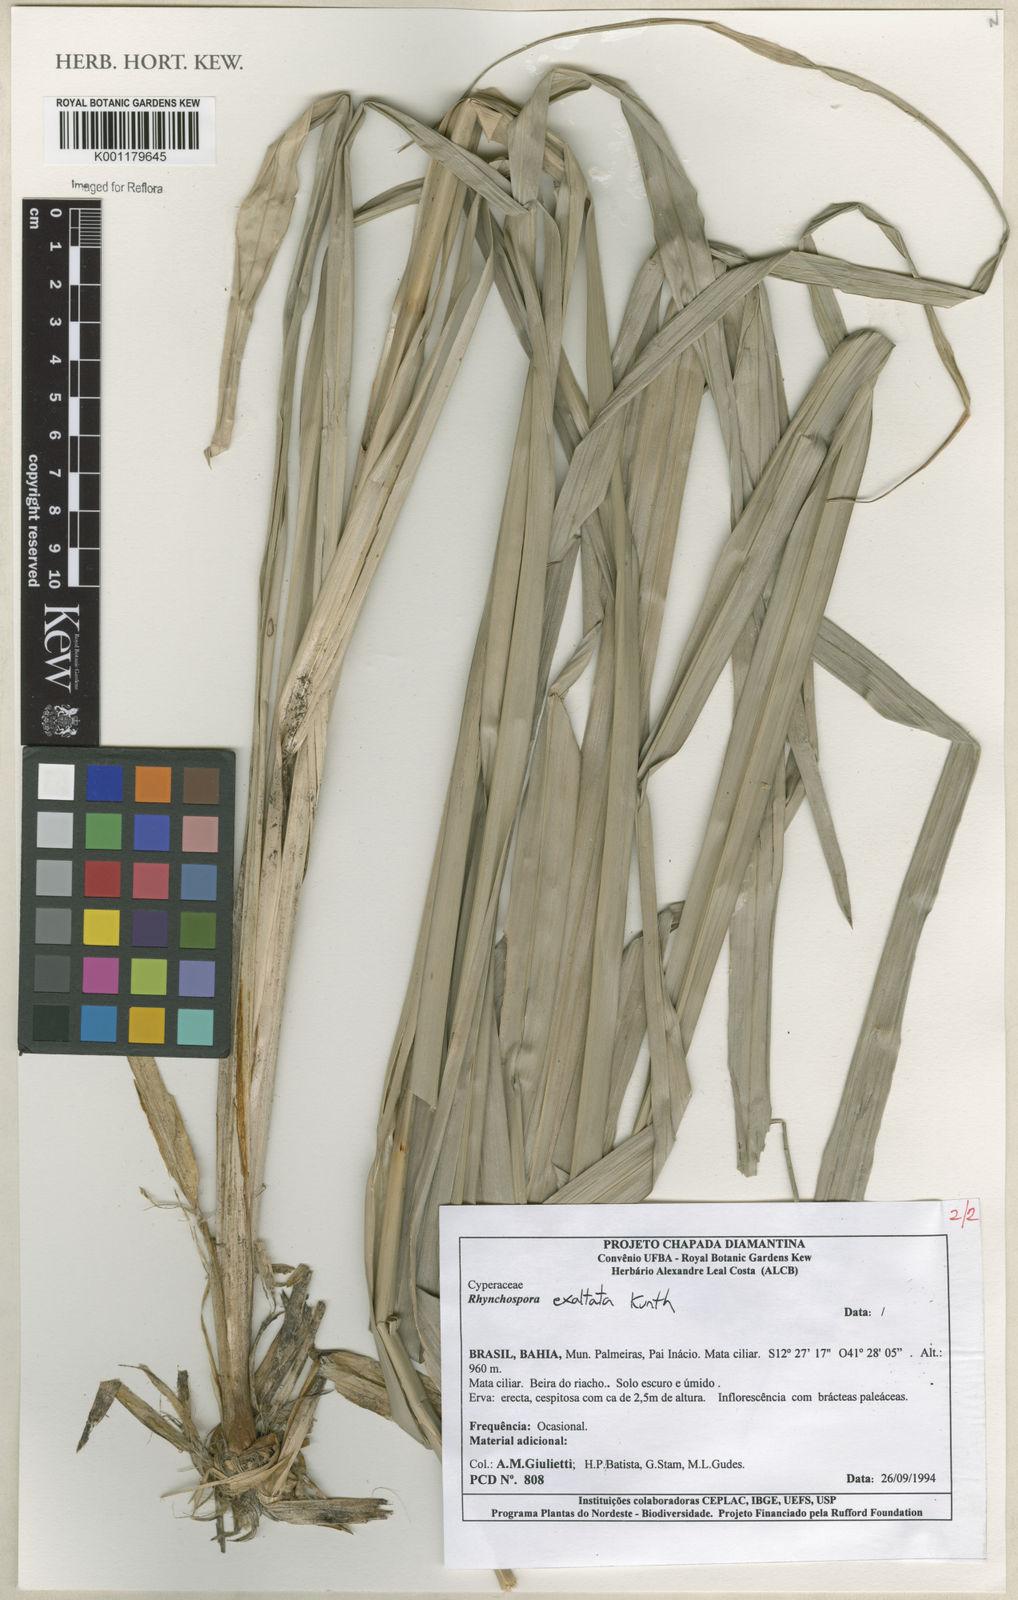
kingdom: Plantae
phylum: Tracheophyta
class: Liliopsida
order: Poales
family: Cyperaceae
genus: Rhynchospora
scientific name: Rhynchospora exaltata
